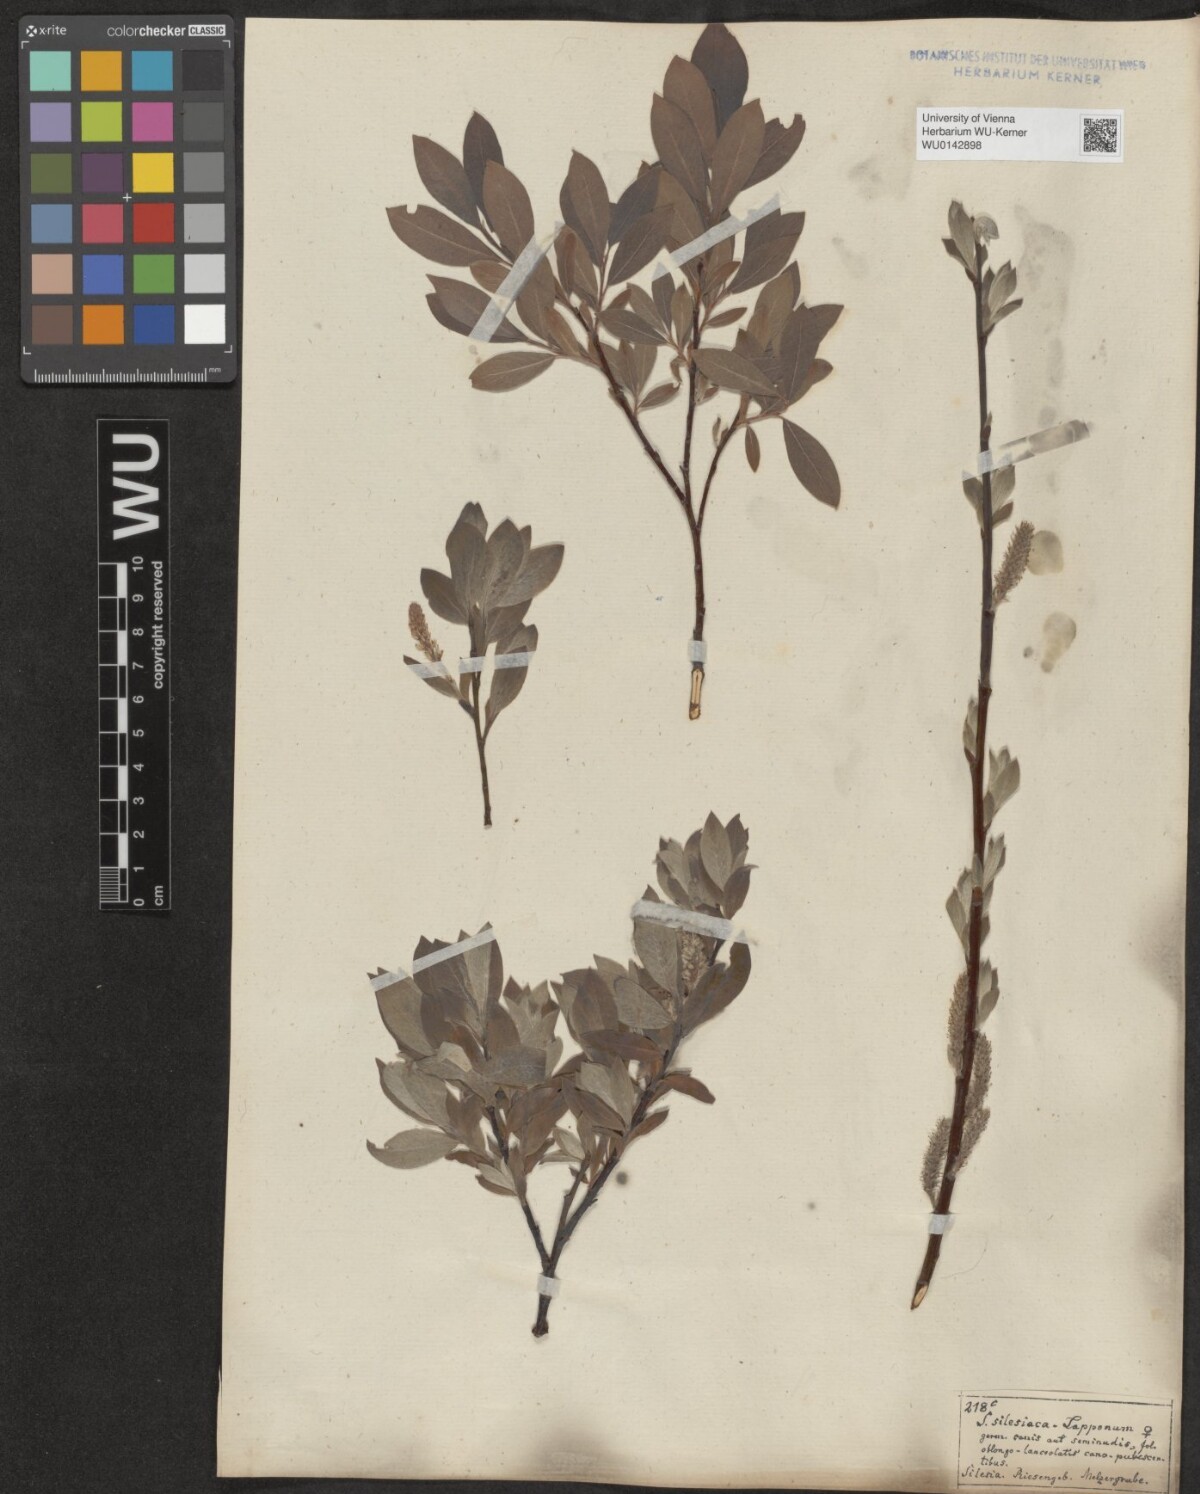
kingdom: Plantae
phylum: Tracheophyta
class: Magnoliopsida
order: Malpighiales
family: Salicaceae
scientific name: Salicaceae
